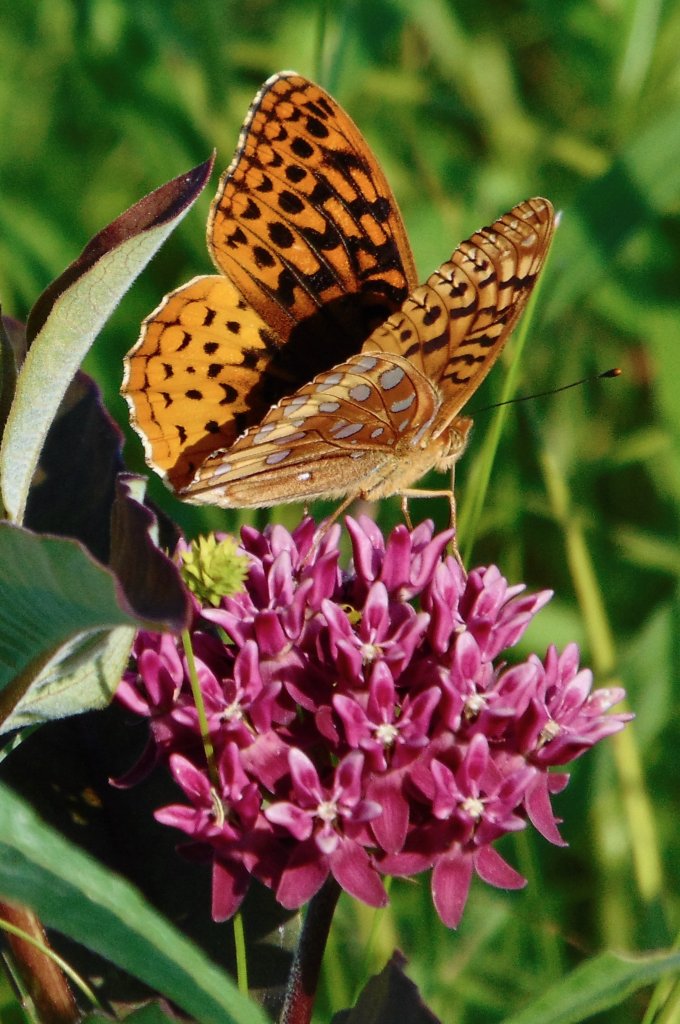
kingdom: Animalia
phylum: Arthropoda
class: Insecta
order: Lepidoptera
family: Nymphalidae
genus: Speyeria
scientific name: Speyeria cybele
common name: Great Spangled Fritillary
